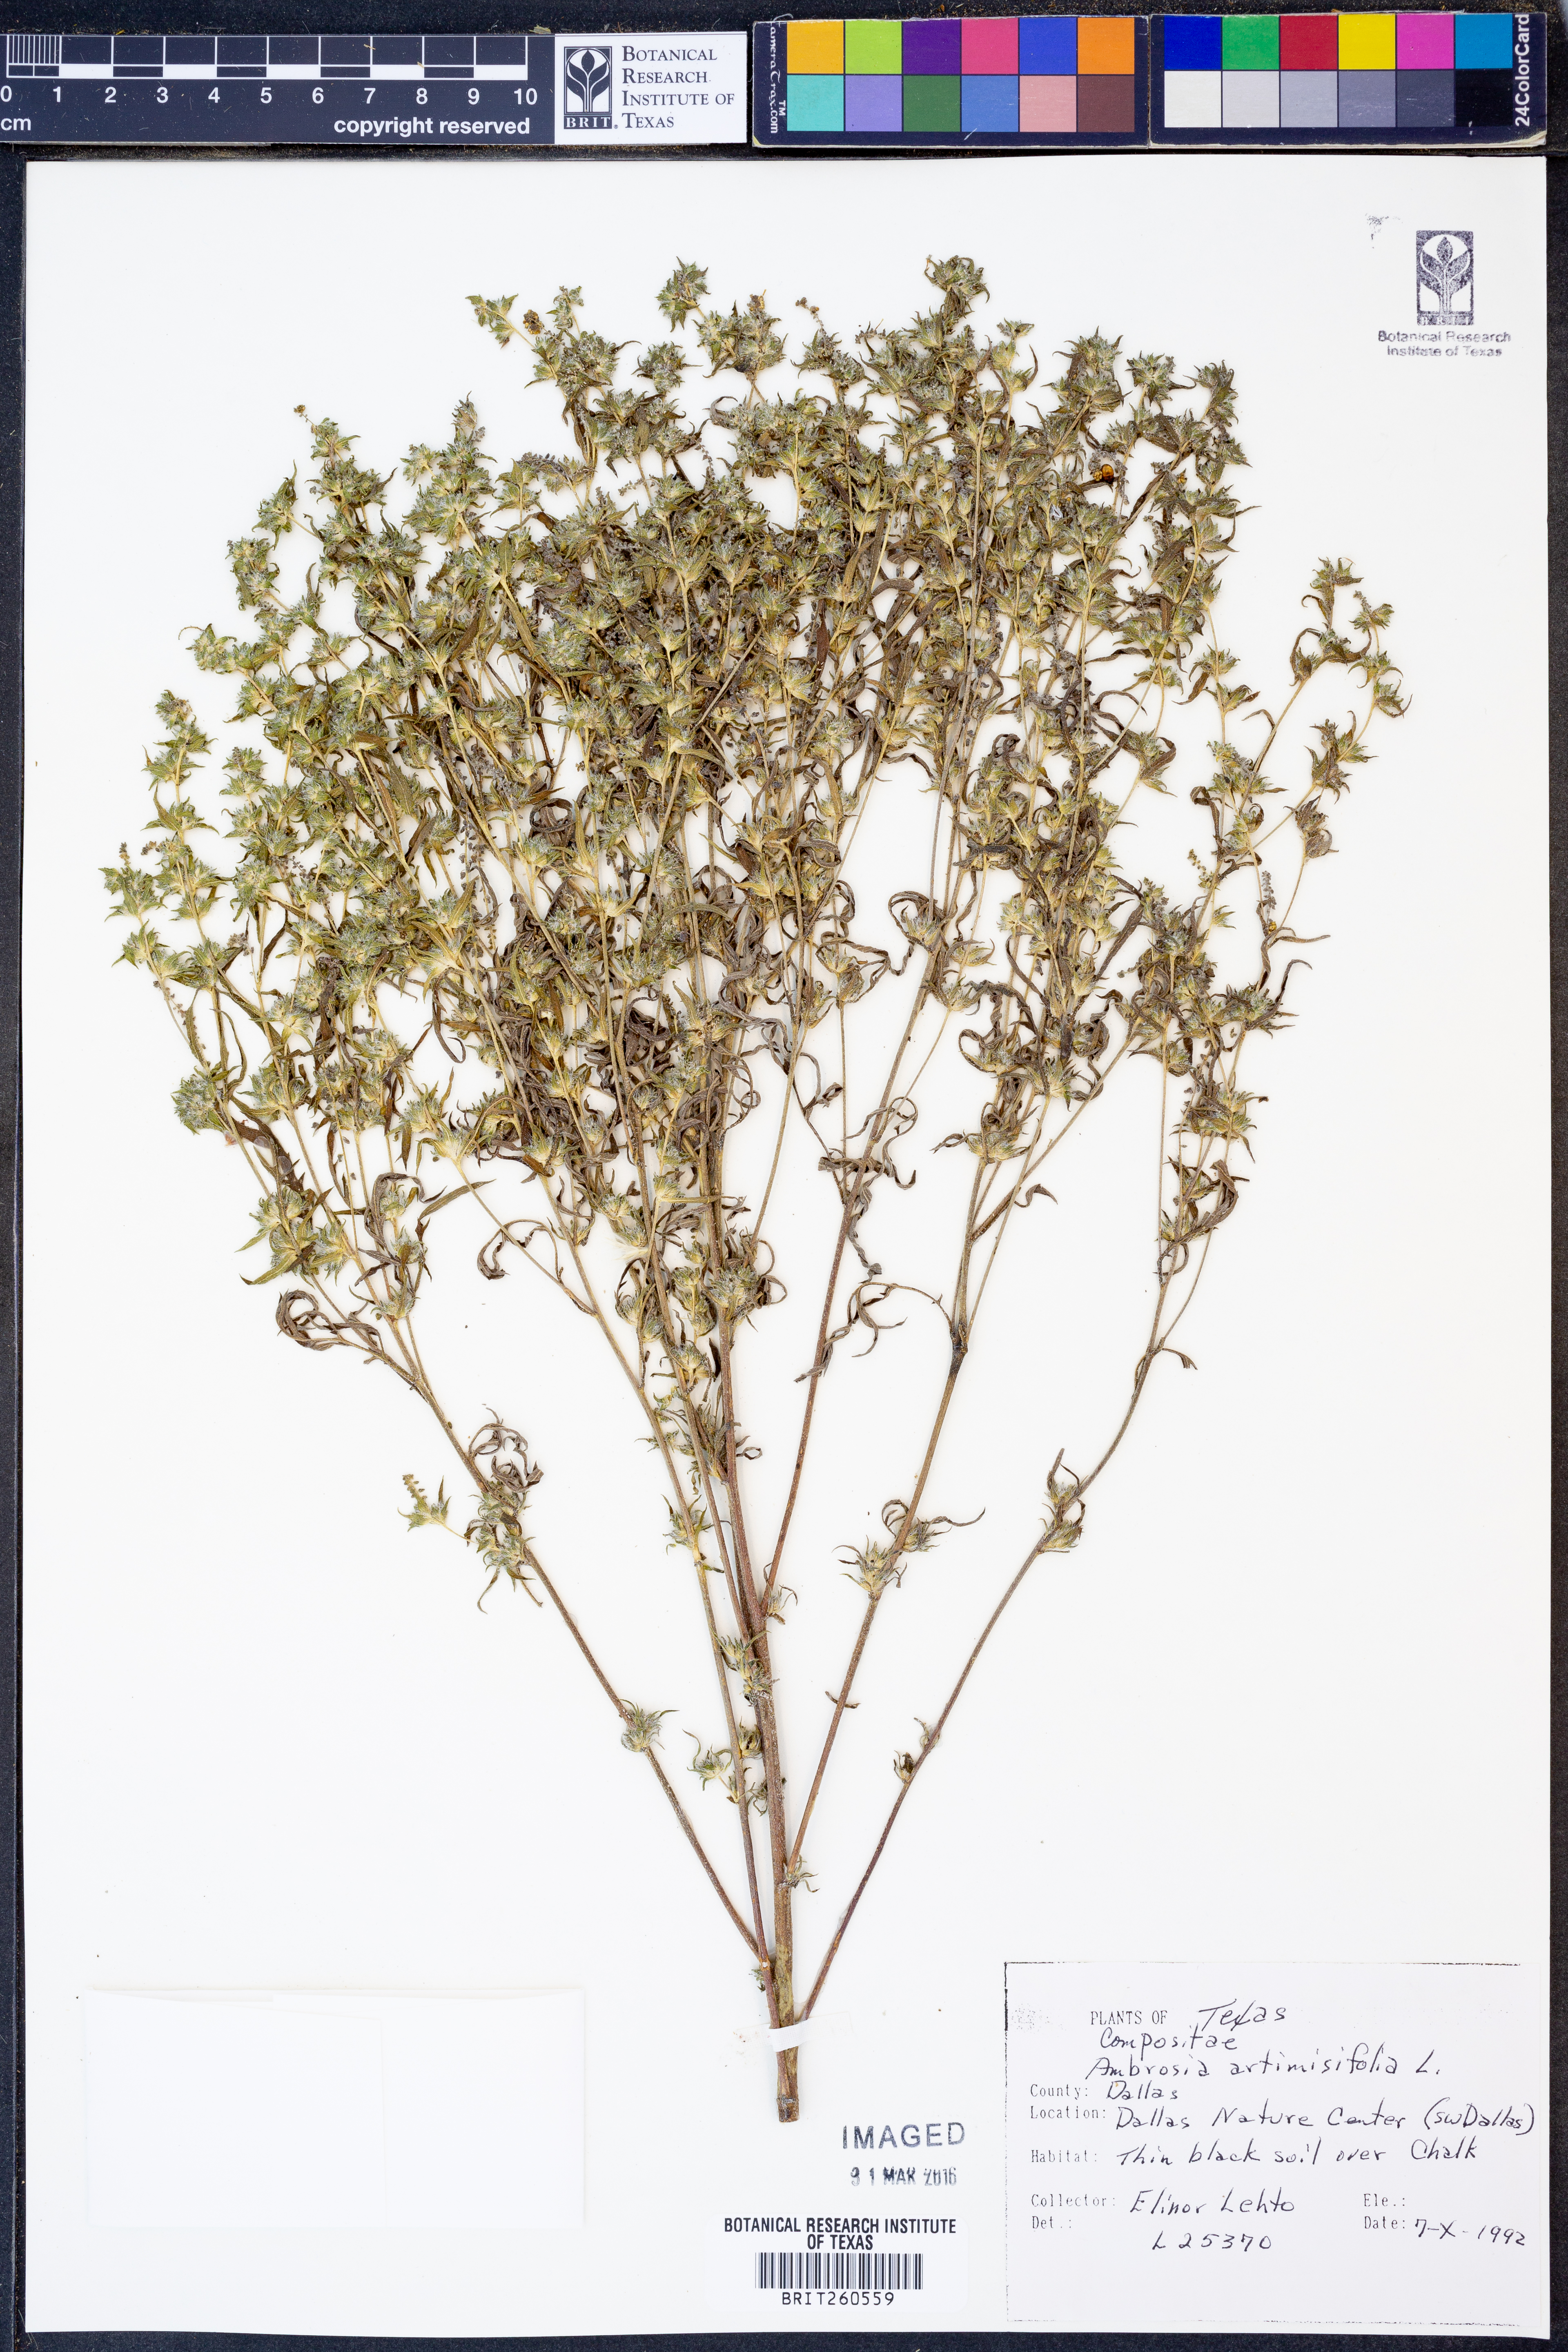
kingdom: Plantae
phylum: Tracheophyta
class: Magnoliopsida
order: Asterales
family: Asteraceae
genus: Ambrosia
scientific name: Ambrosia artemisiifolia
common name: Annual ragweed
